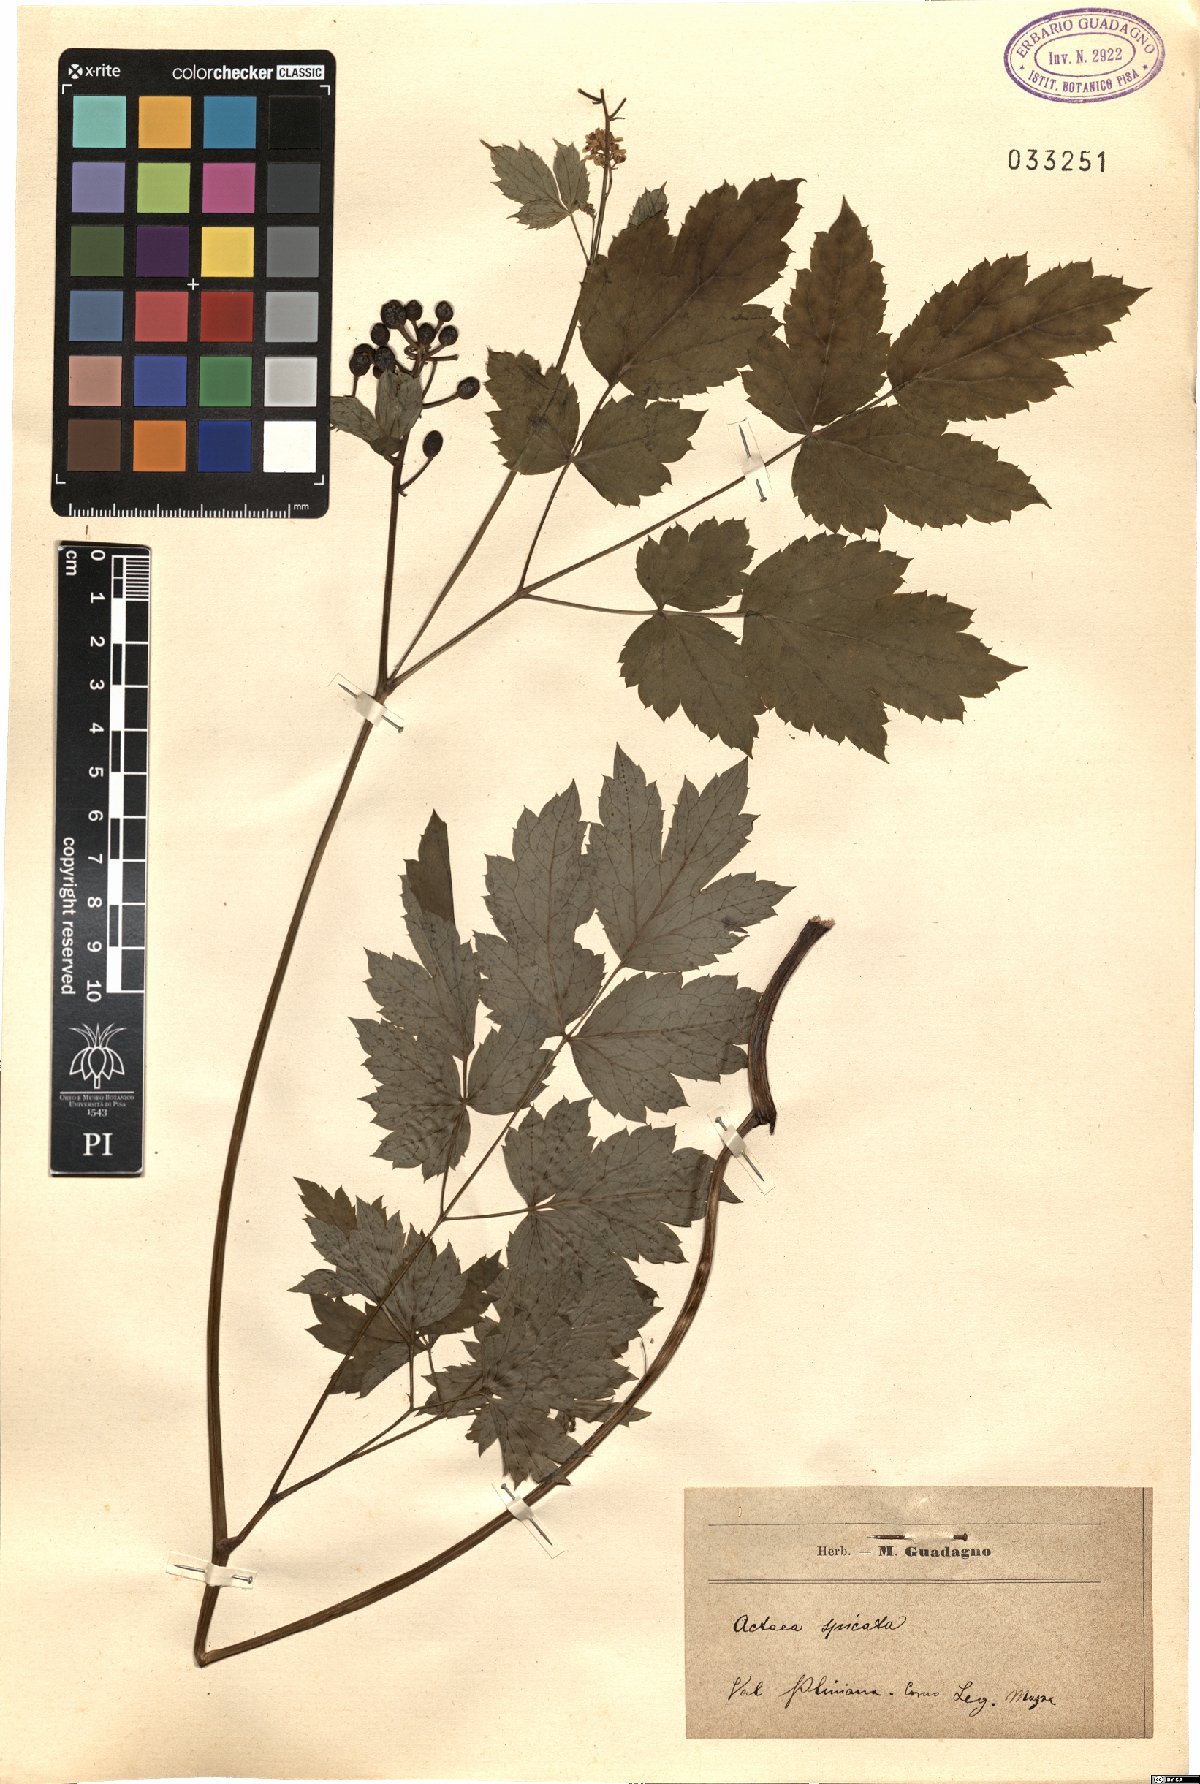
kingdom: Plantae
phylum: Tracheophyta
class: Magnoliopsida
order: Ranunculales
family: Ranunculaceae
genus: Actaea
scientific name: Actaea spicata
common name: Baneberry
